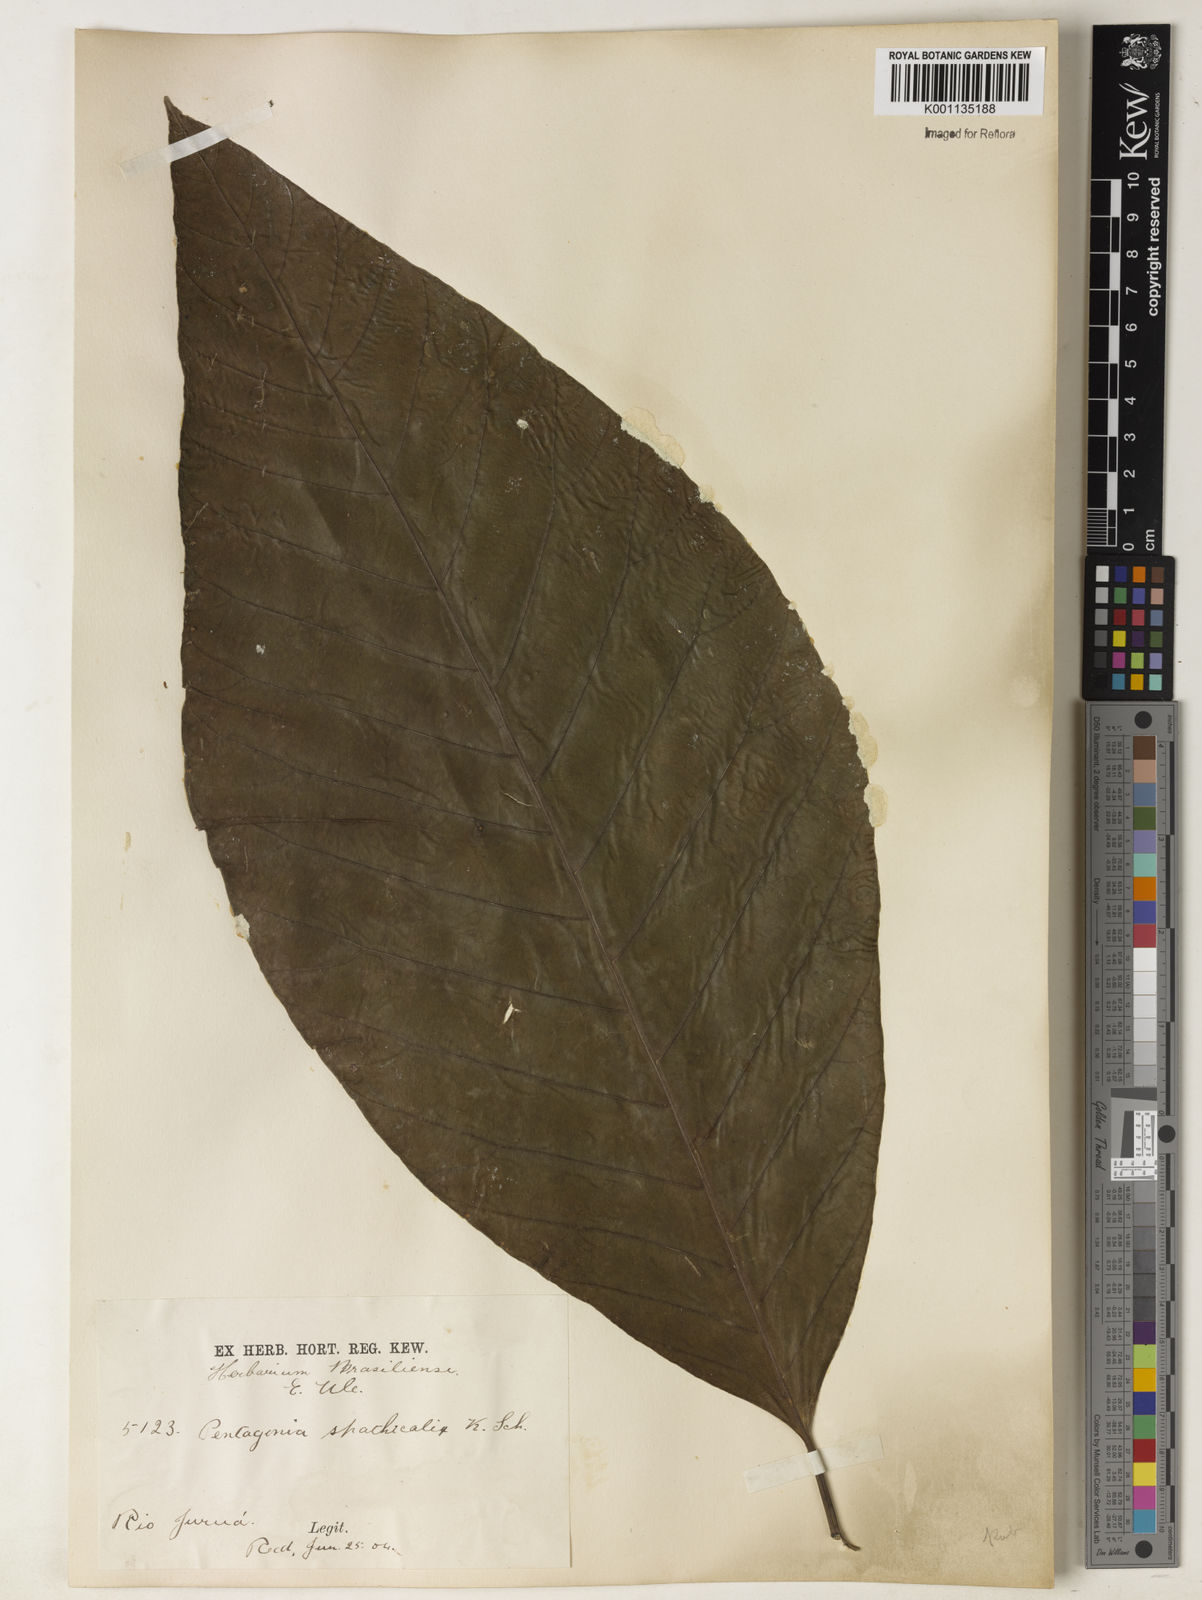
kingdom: Plantae
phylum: Tracheophyta
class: Magnoliopsida
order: Gentianales
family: Rubiaceae
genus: Pentagonia
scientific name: Pentagonia spathicalyx
